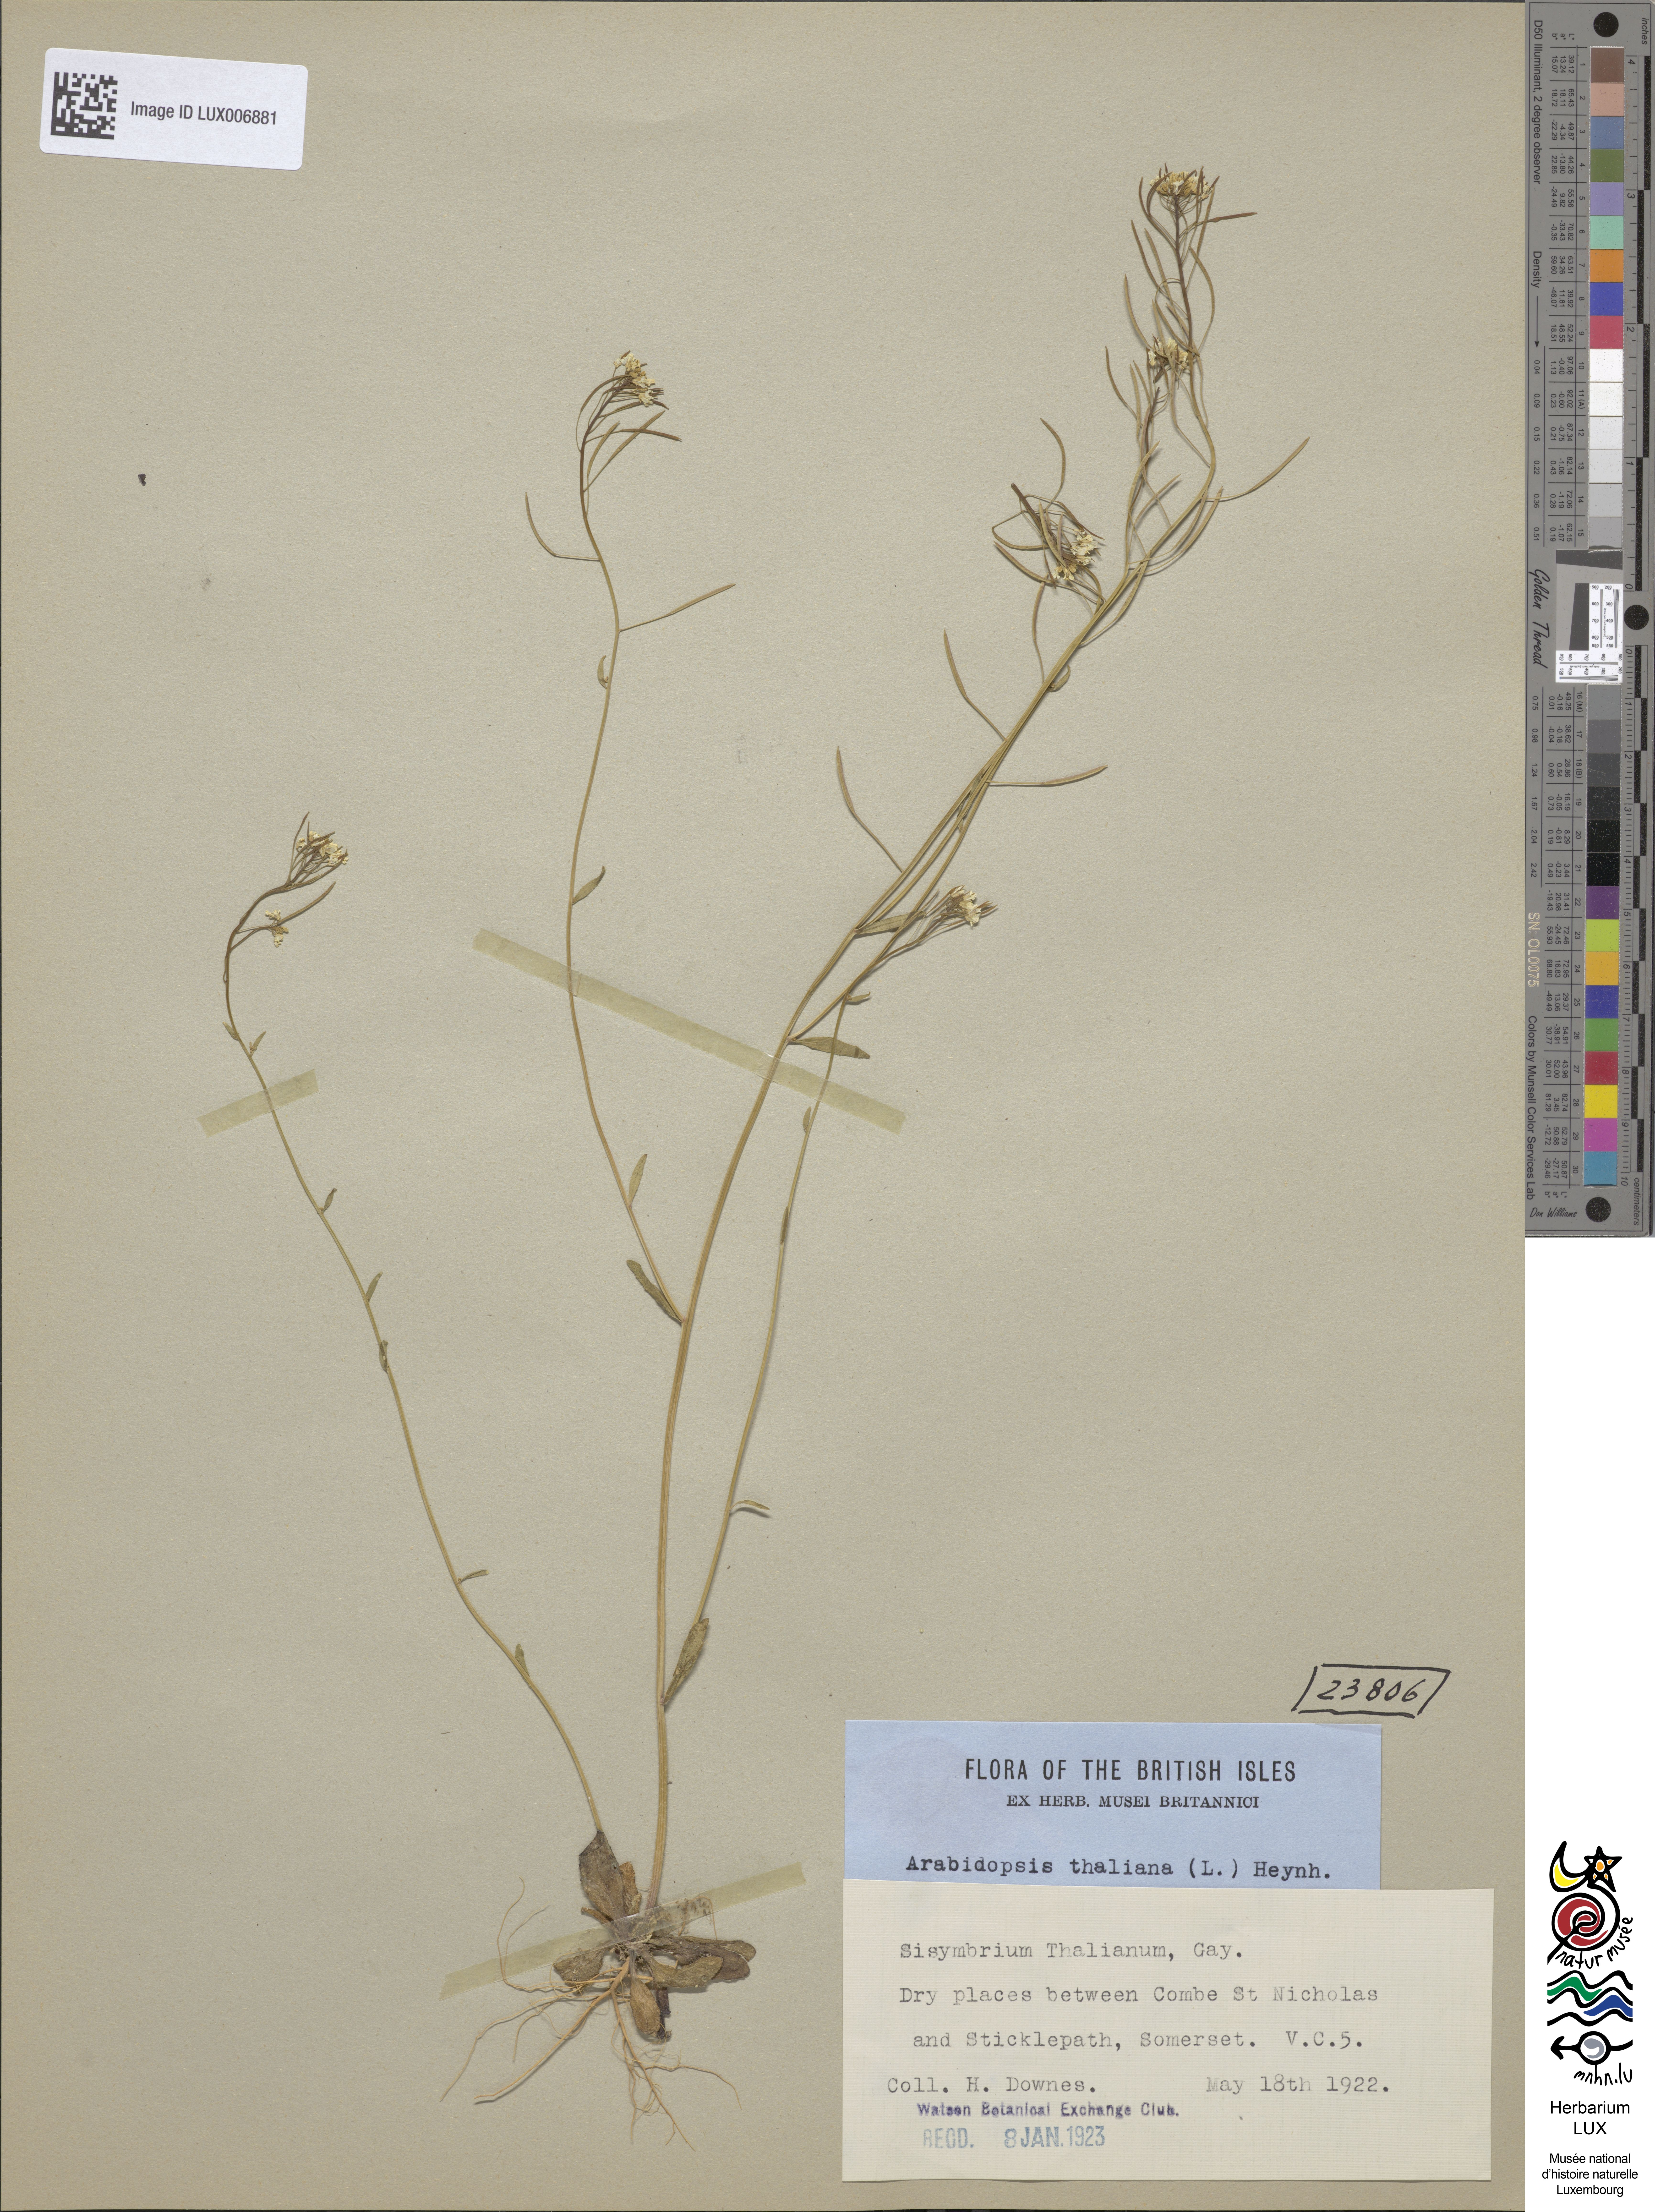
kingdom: Plantae
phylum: Tracheophyta
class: Magnoliopsida
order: Brassicales
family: Brassicaceae
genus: Arabidopsis
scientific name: Arabidopsis thaliana
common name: Thale cress
